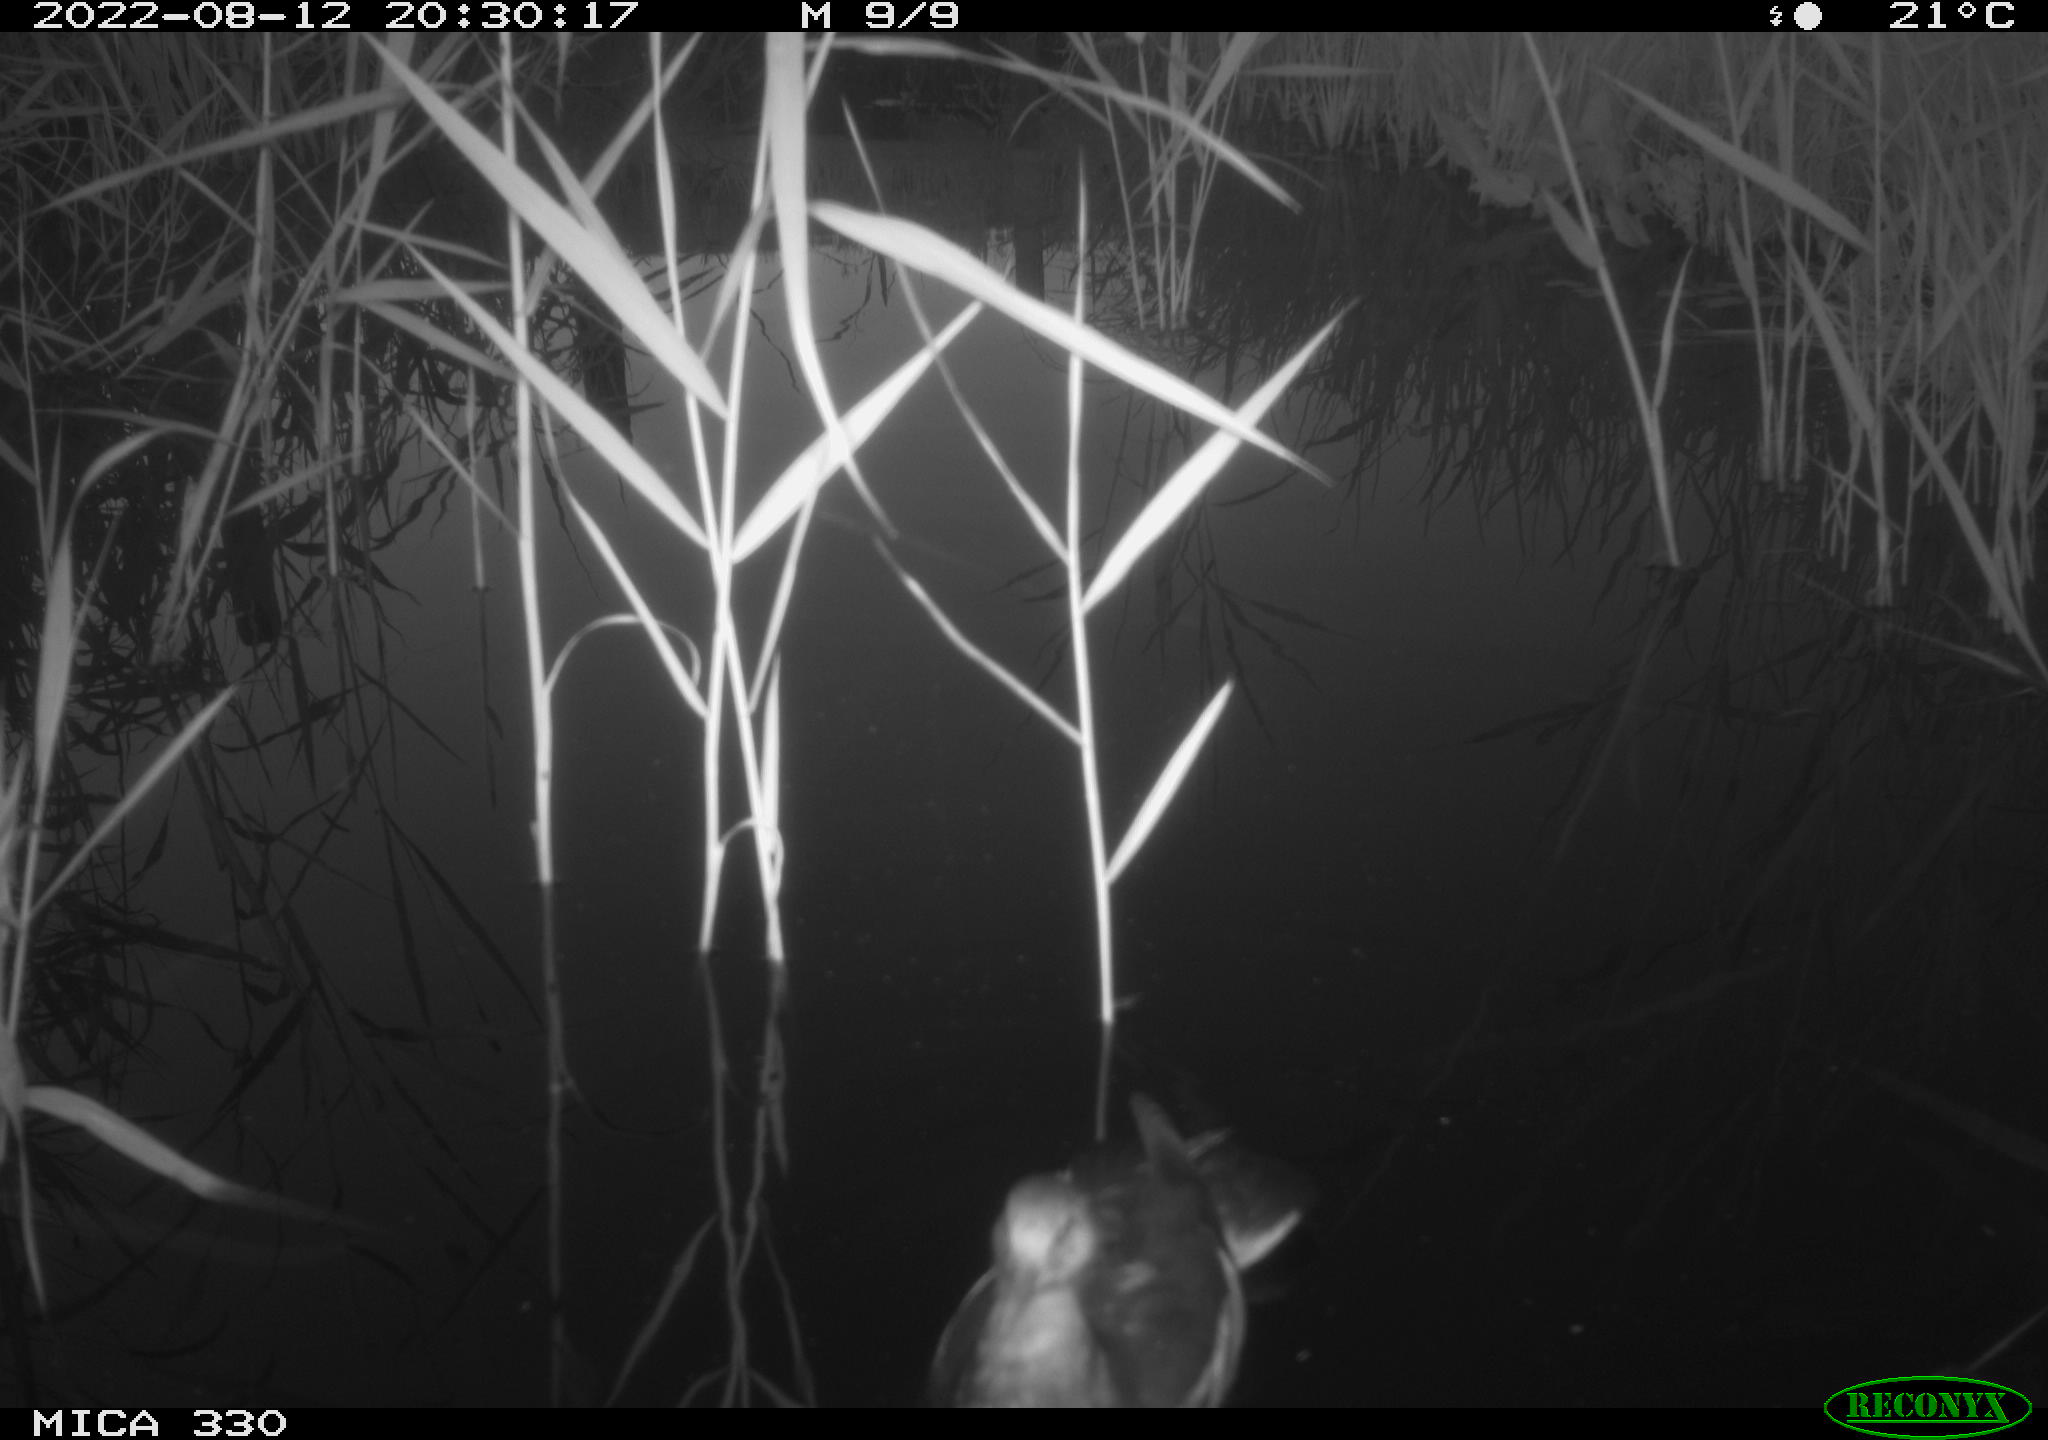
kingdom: Animalia
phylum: Chordata
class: Aves
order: Gruiformes
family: Rallidae
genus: Gallinula
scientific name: Gallinula chloropus
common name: Common moorhen
